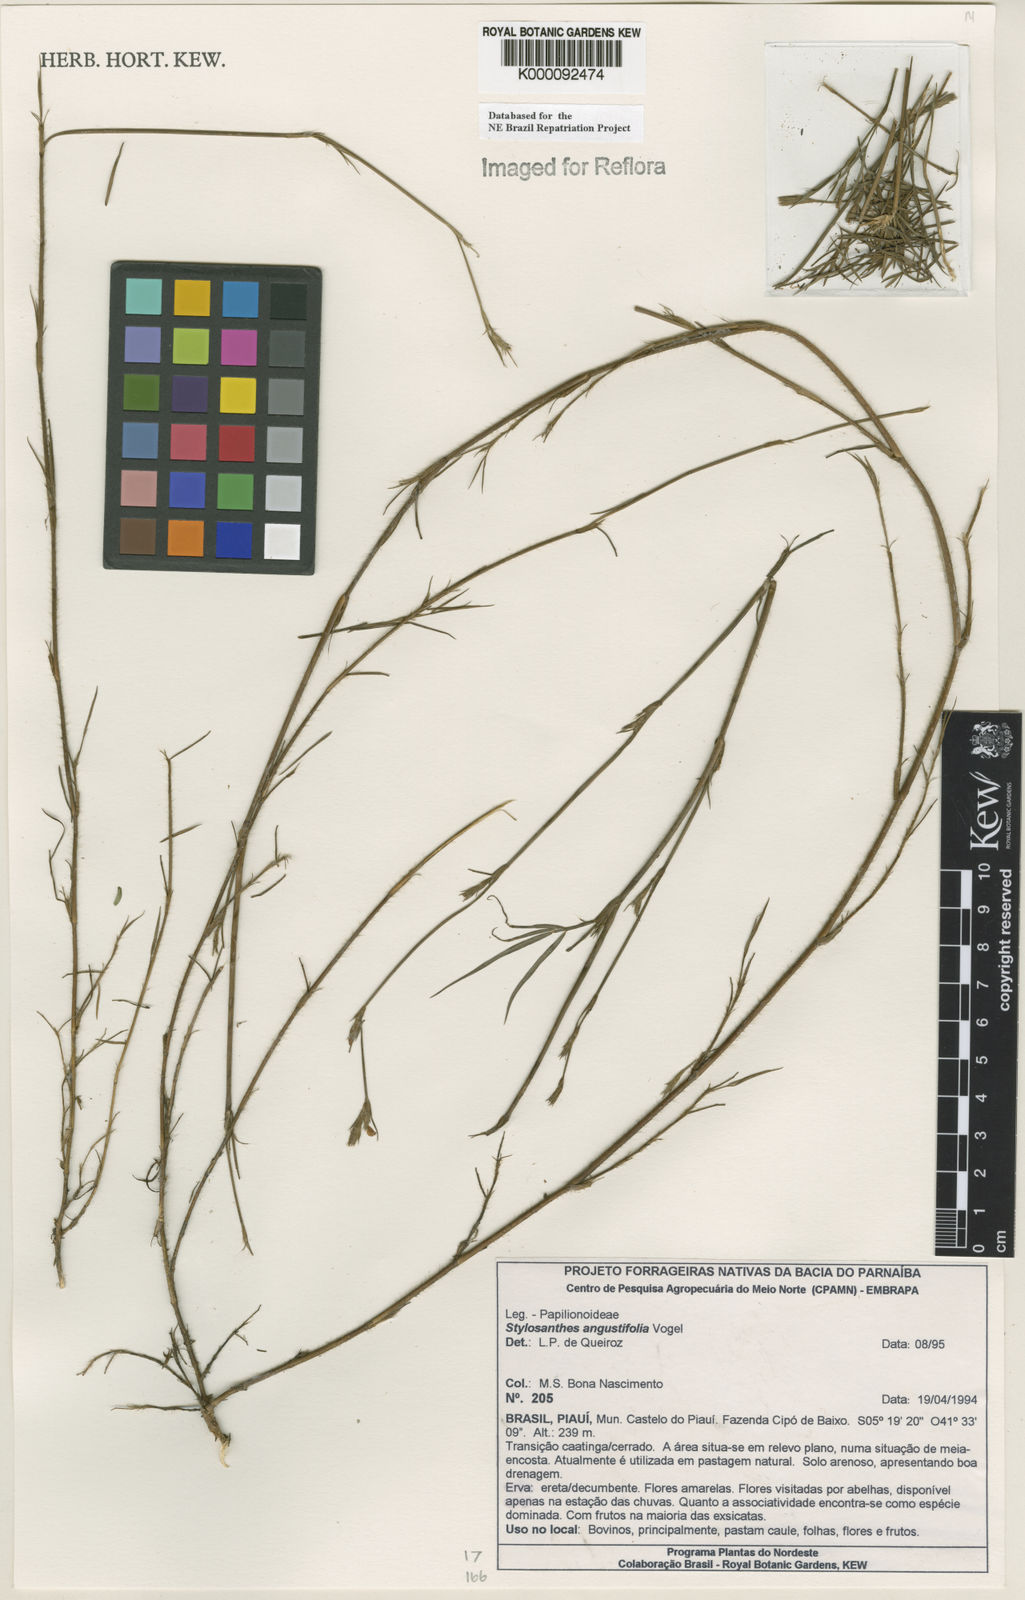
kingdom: Plantae
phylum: Tracheophyta
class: Magnoliopsida
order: Fabales
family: Fabaceae
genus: Stylosanthes
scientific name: Stylosanthes angustifolia
